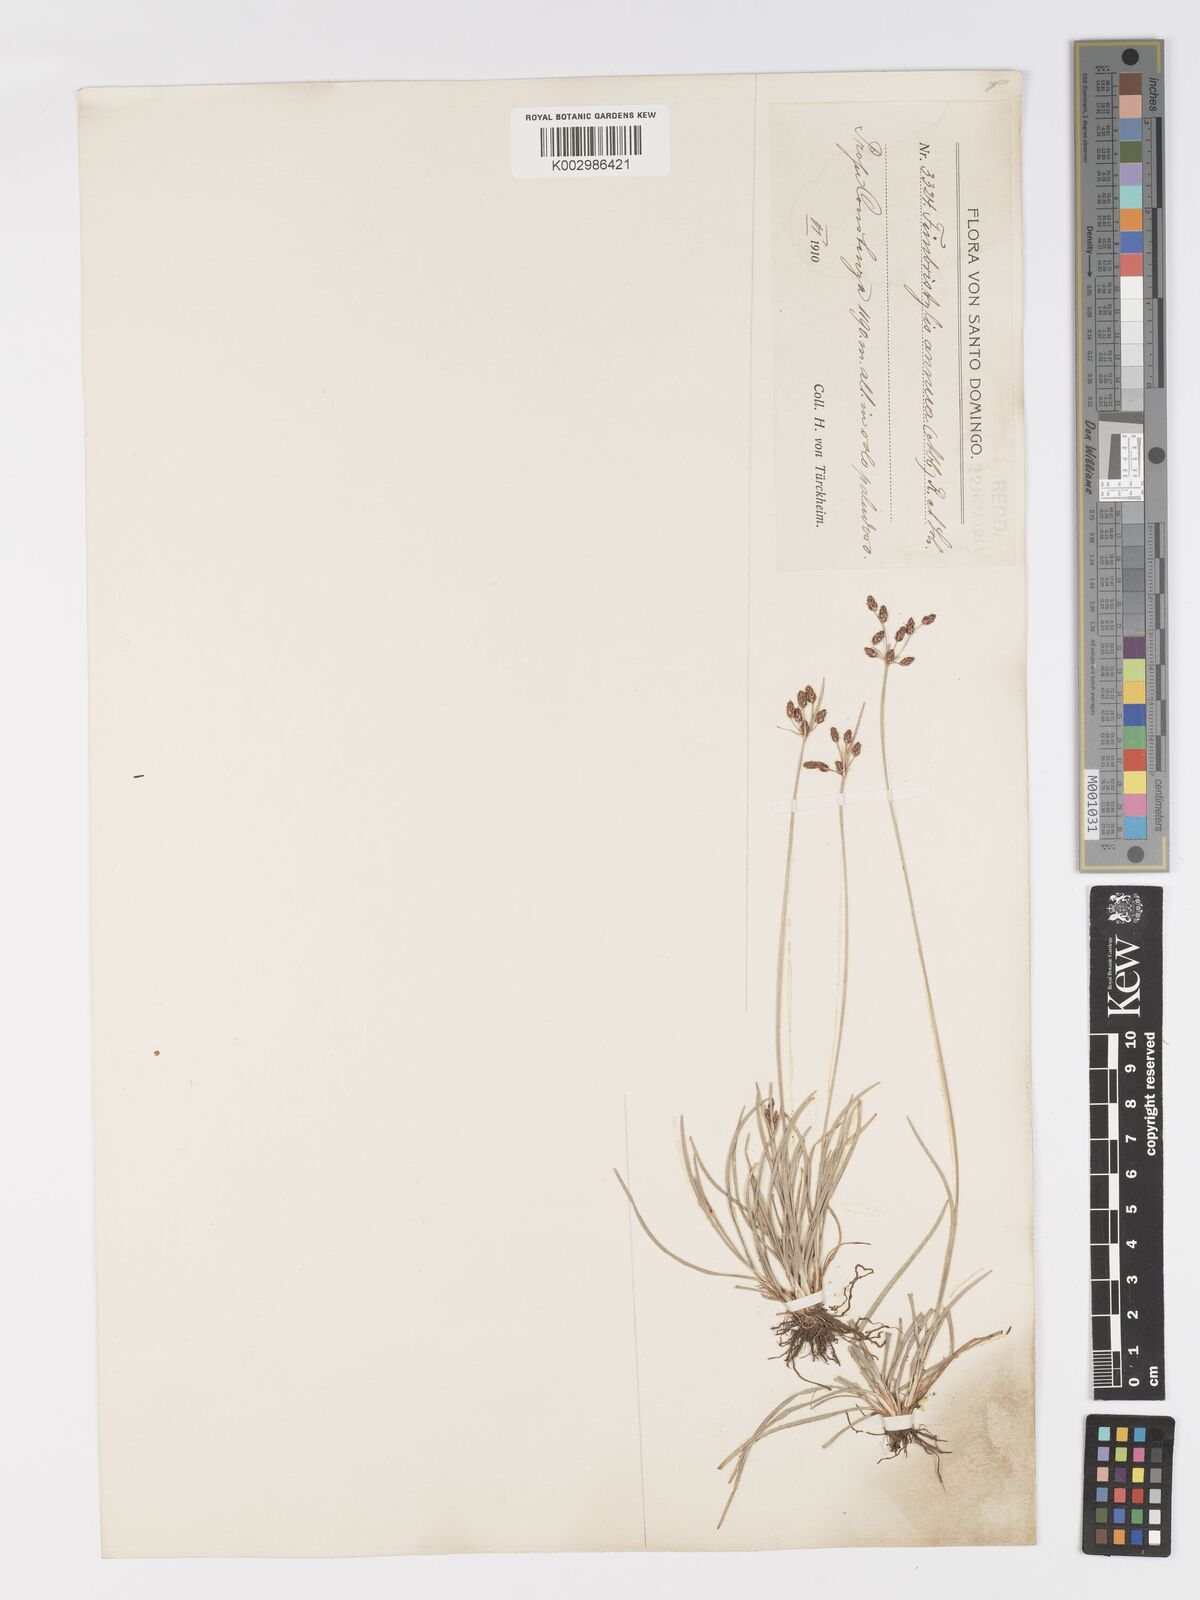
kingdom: Plantae
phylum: Tracheophyta
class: Liliopsida
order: Poales
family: Cyperaceae
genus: Fimbristylis
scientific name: Fimbristylis dichotoma
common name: Forked fimbry
